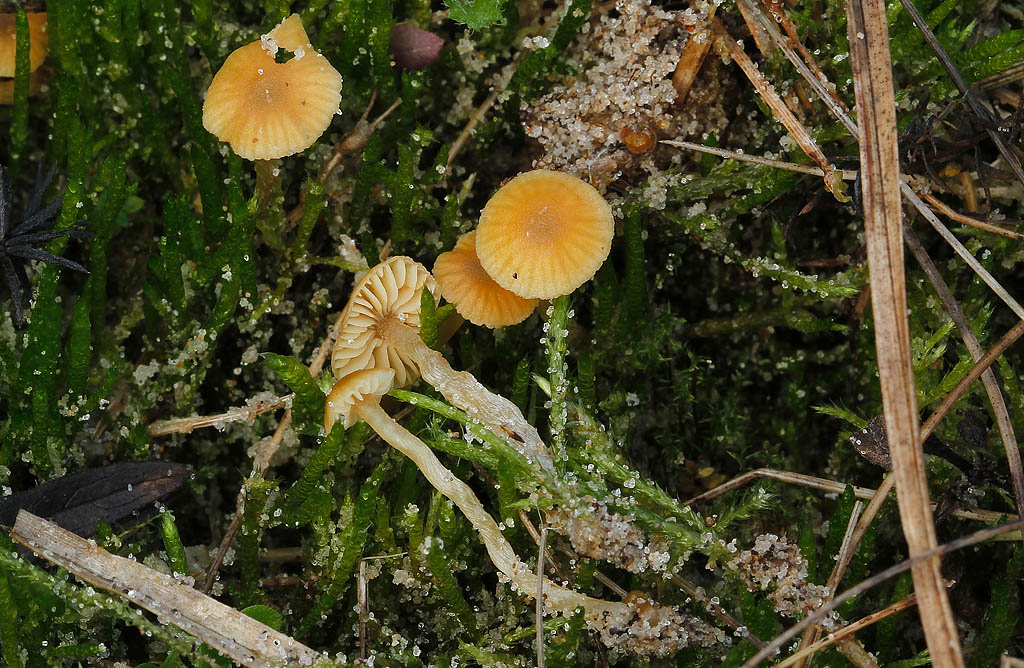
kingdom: Fungi
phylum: Basidiomycota
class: Agaricomycetes
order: Agaricales
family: Hymenogastraceae
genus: Galerina
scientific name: Galerina graminea
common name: plæne-hjelmhat
